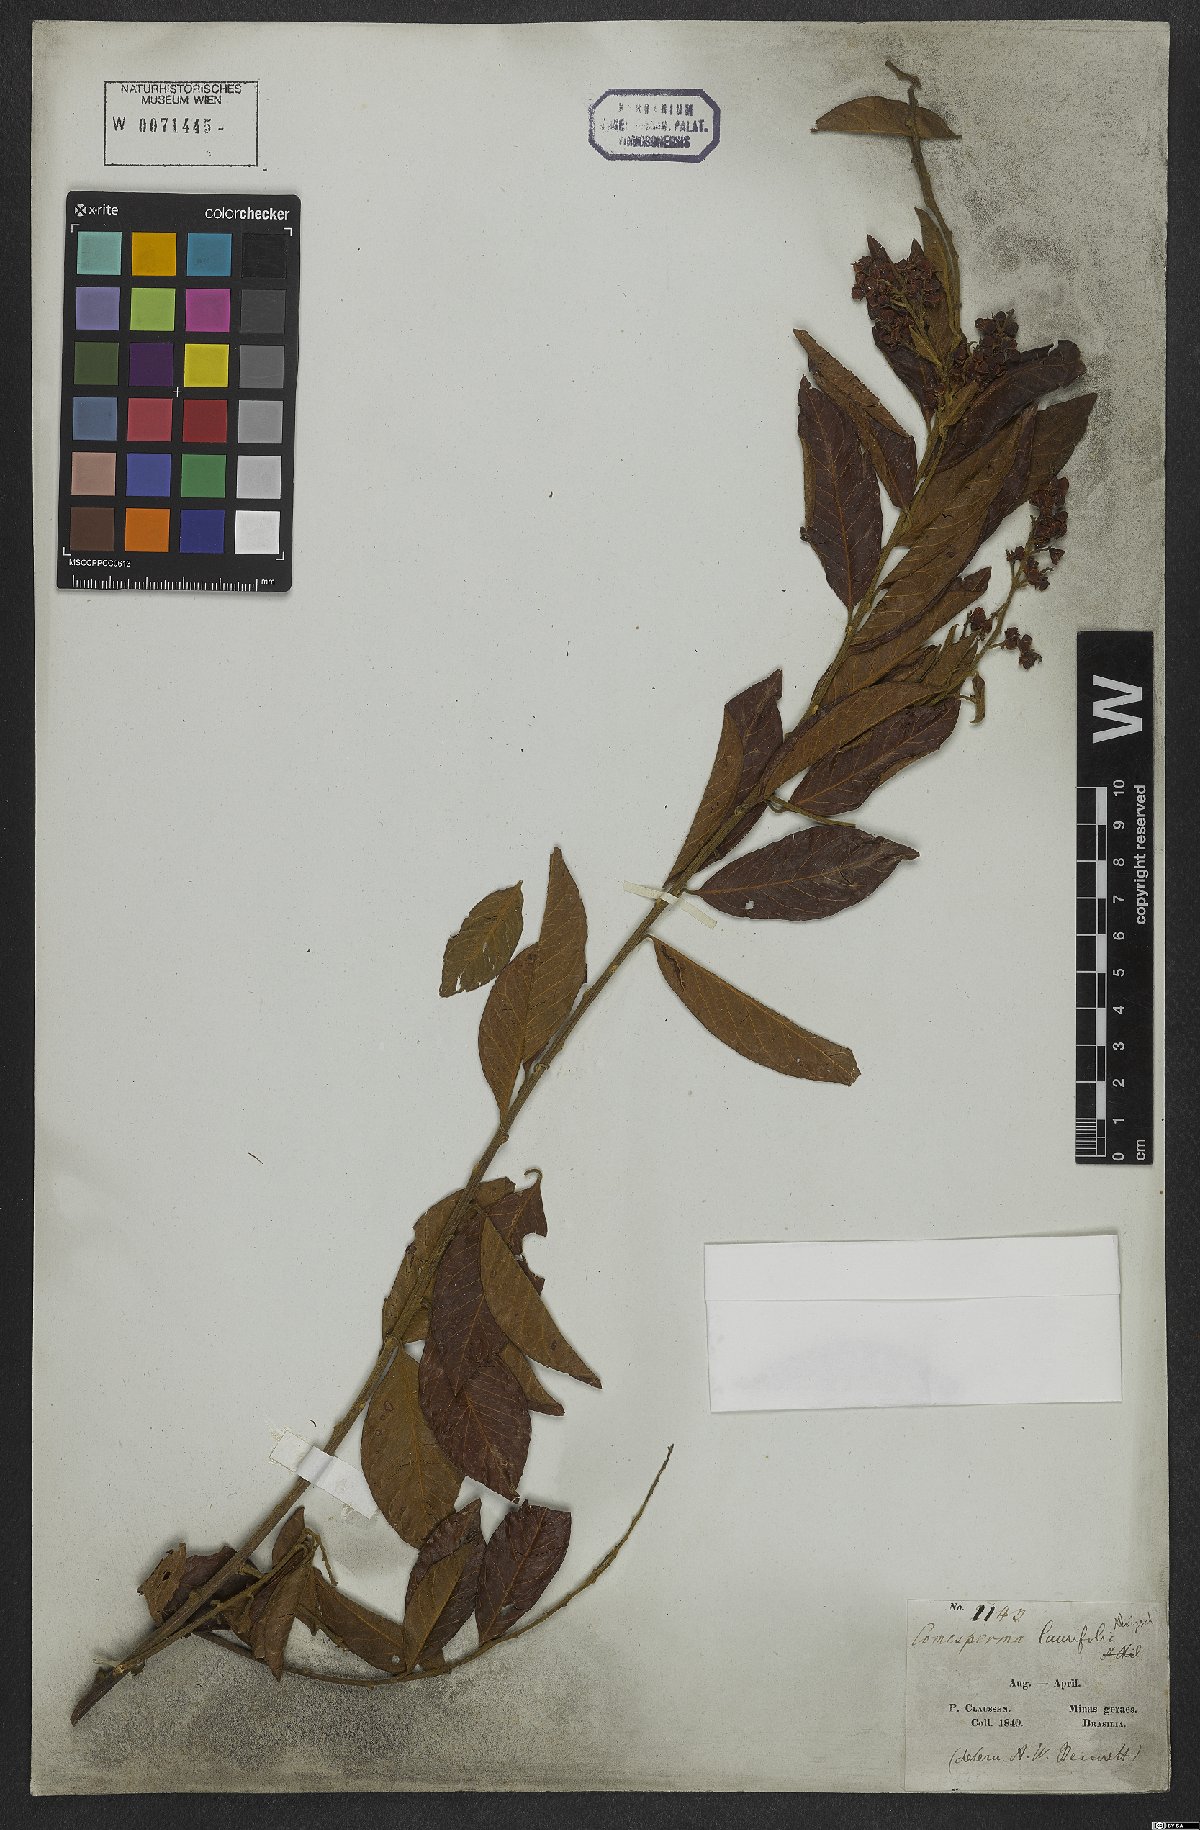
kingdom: Plantae
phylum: Tracheophyta
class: Magnoliopsida
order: Fabales
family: Polygalaceae
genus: Bredemeyera
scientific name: Bredemeyera laurifolia
